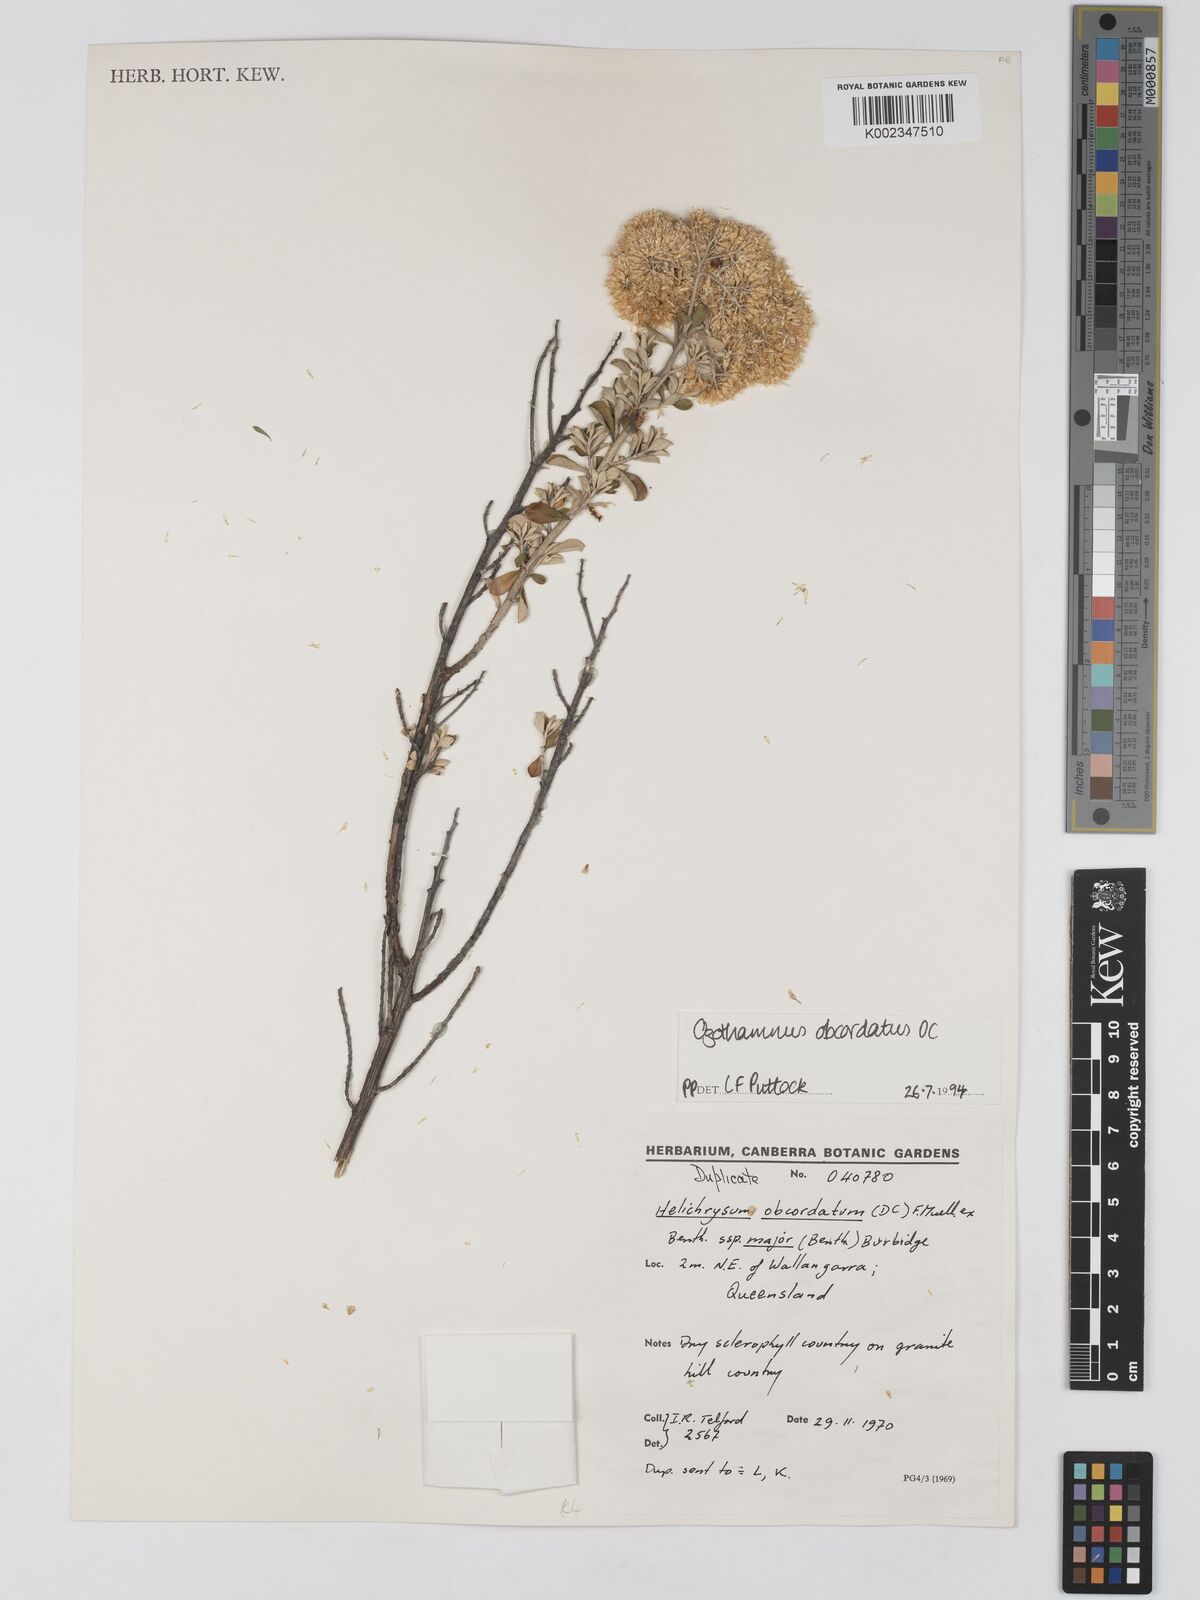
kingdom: Plantae
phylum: Tracheophyta
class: Magnoliopsida
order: Asterales
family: Asteraceae
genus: Ozothamnus
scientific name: Ozothamnus
